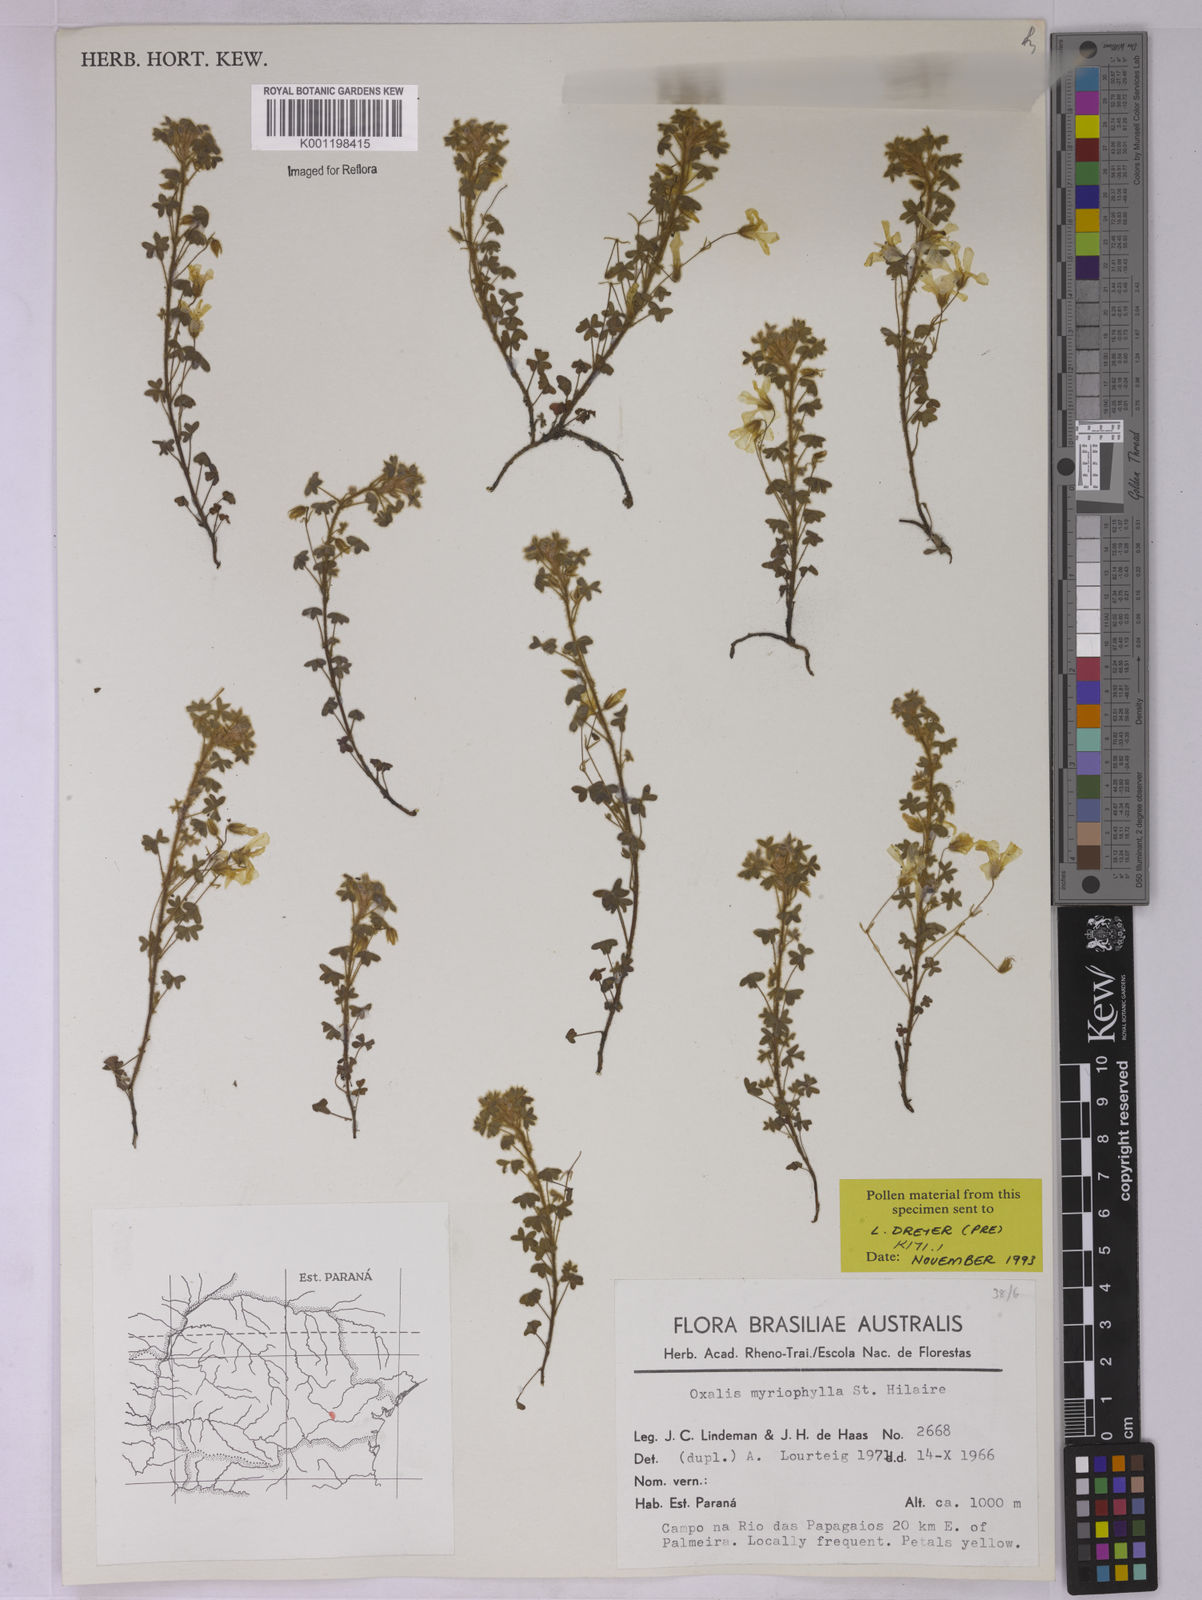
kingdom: Plantae
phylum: Tracheophyta
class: Magnoliopsida
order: Oxalidales
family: Oxalidaceae
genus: Oxalis
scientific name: Oxalis myriophylla
